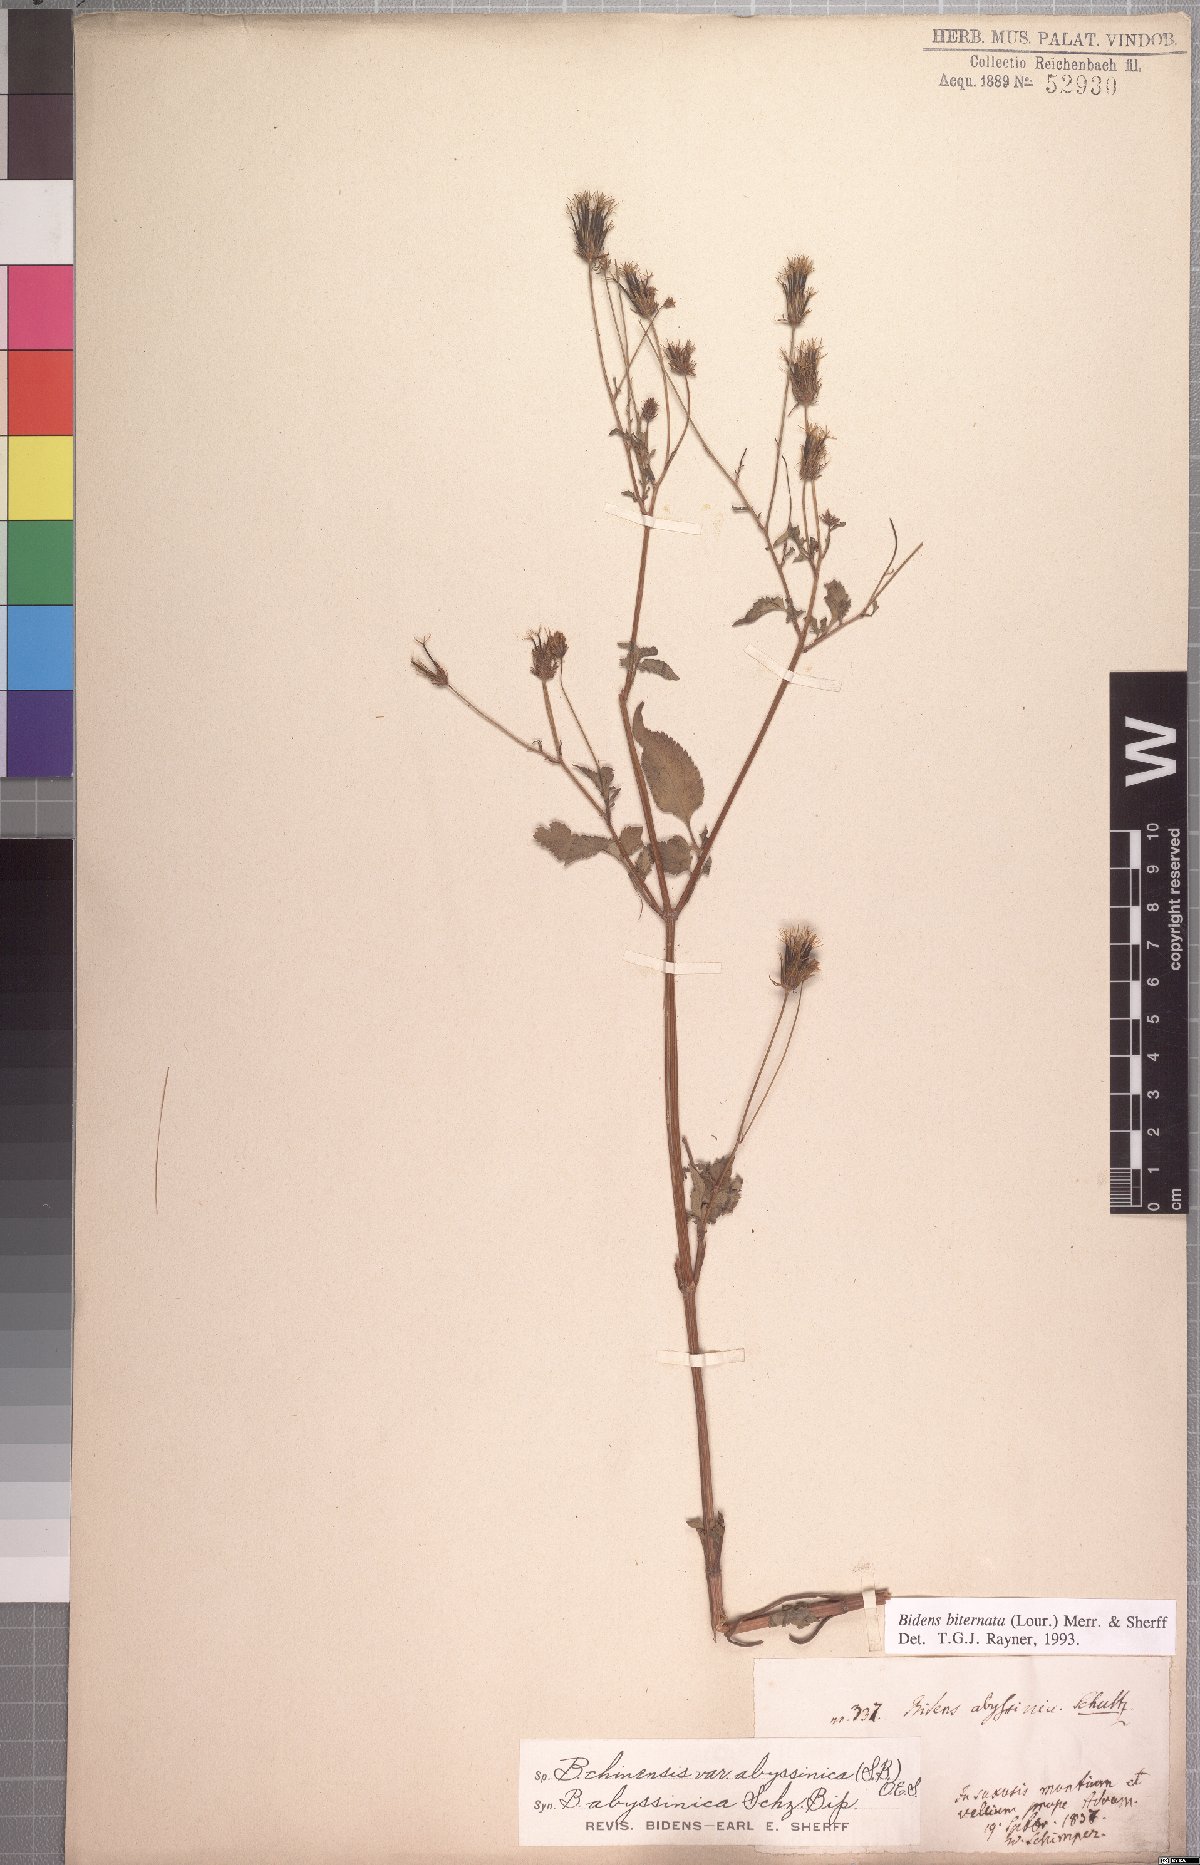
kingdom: Plantae
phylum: Tracheophyta
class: Magnoliopsida
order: Asterales
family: Asteraceae
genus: Bidens
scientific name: Bidens biternata
